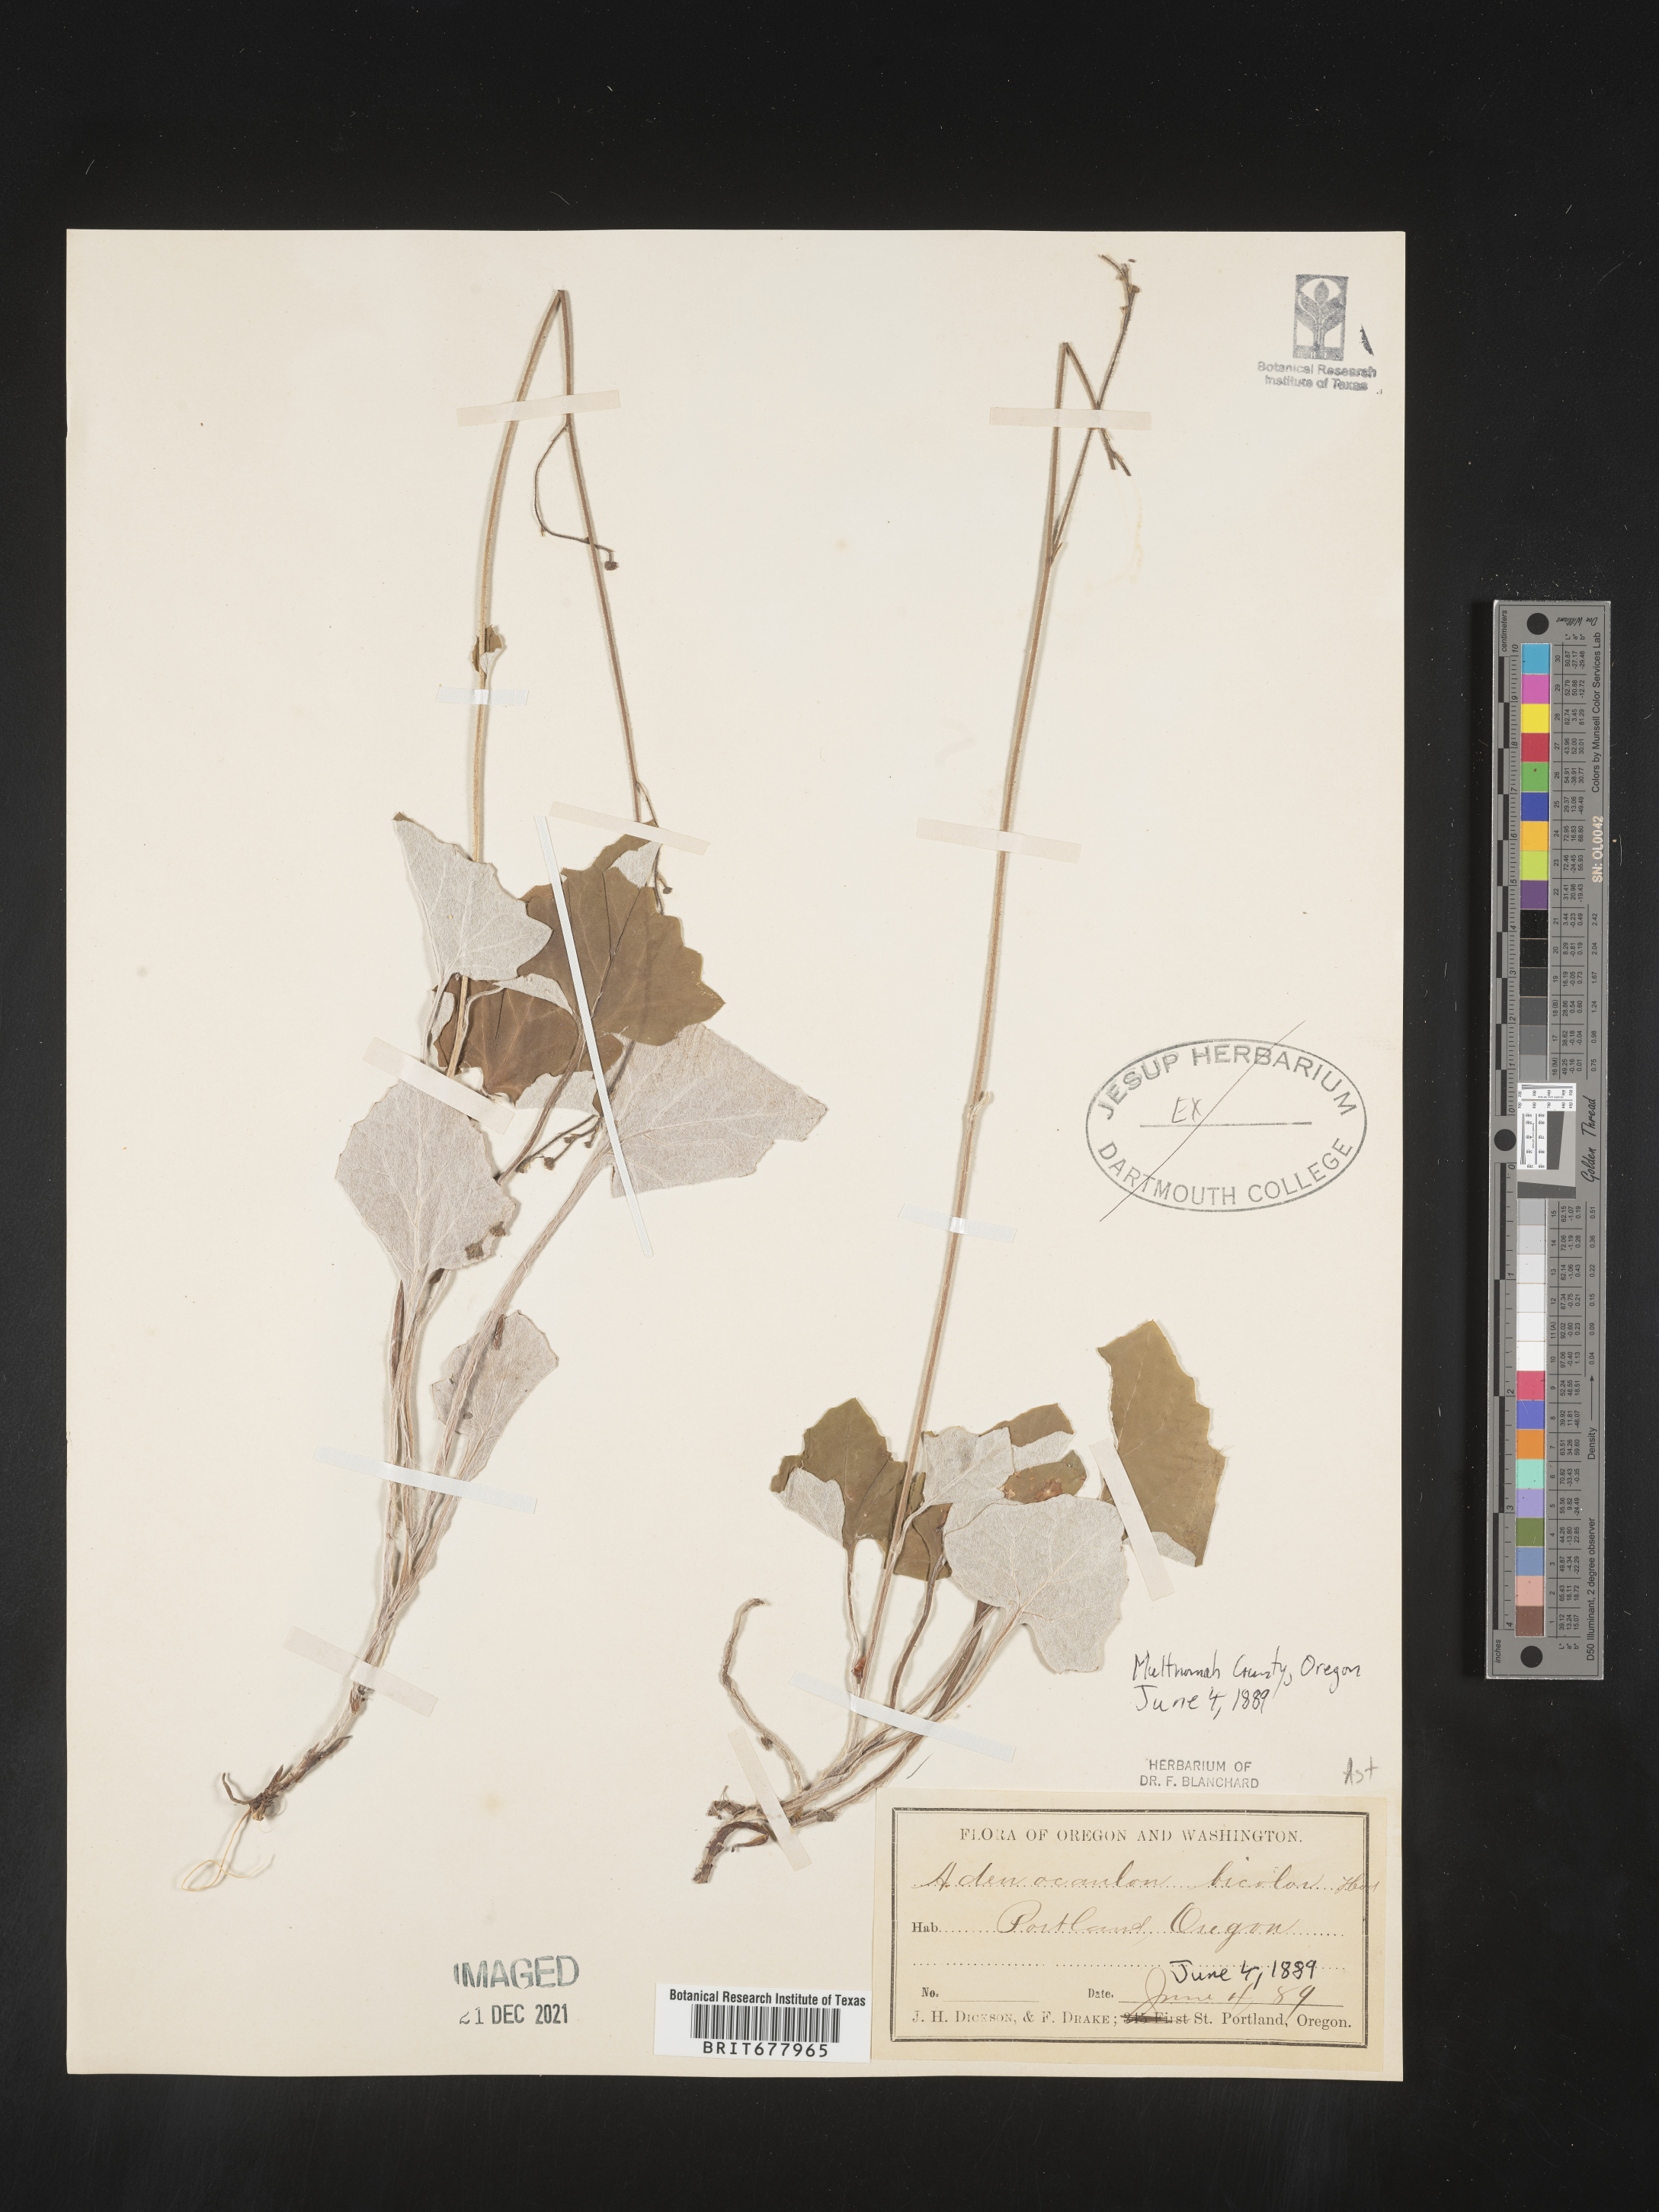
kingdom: Plantae
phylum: Tracheophyta
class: Magnoliopsida
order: Asterales
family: Asteraceae
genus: Adenocaulon
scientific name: Adenocaulon
